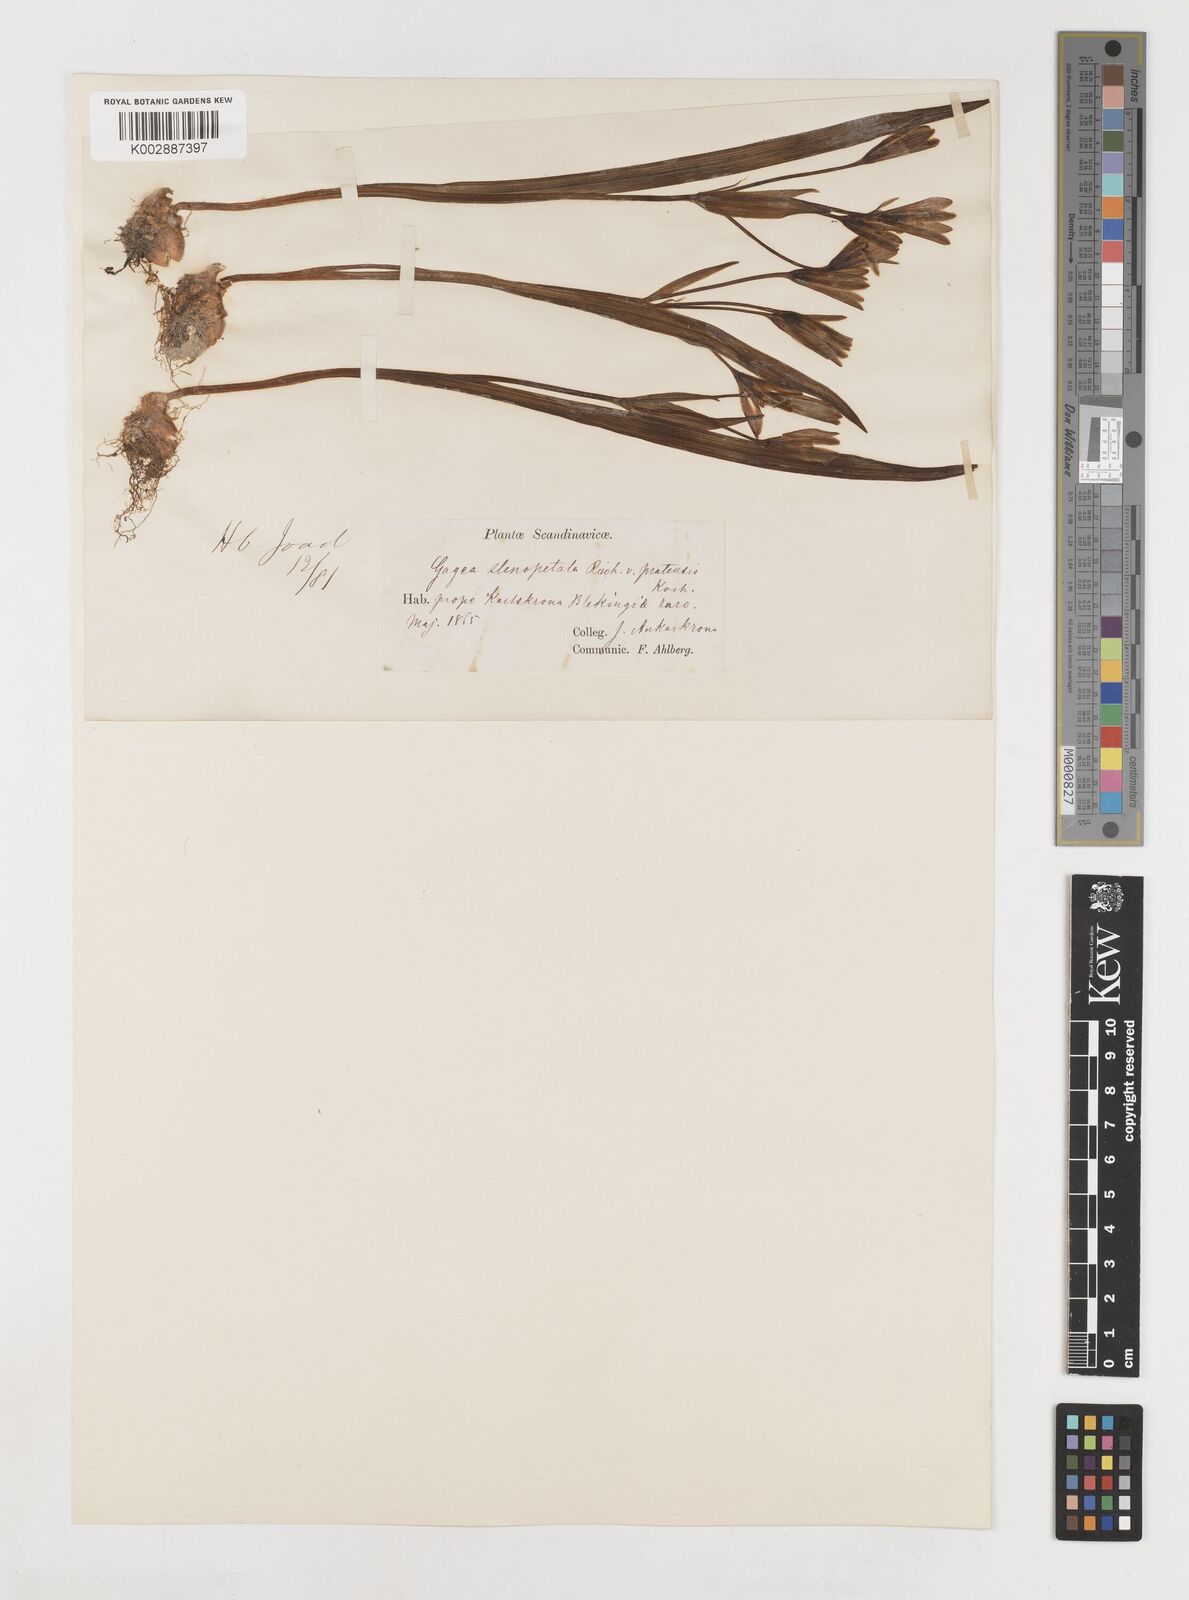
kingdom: Plantae
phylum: Tracheophyta
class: Liliopsida
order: Liliales
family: Liliaceae
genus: Gagea
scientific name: Gagea pratensis
